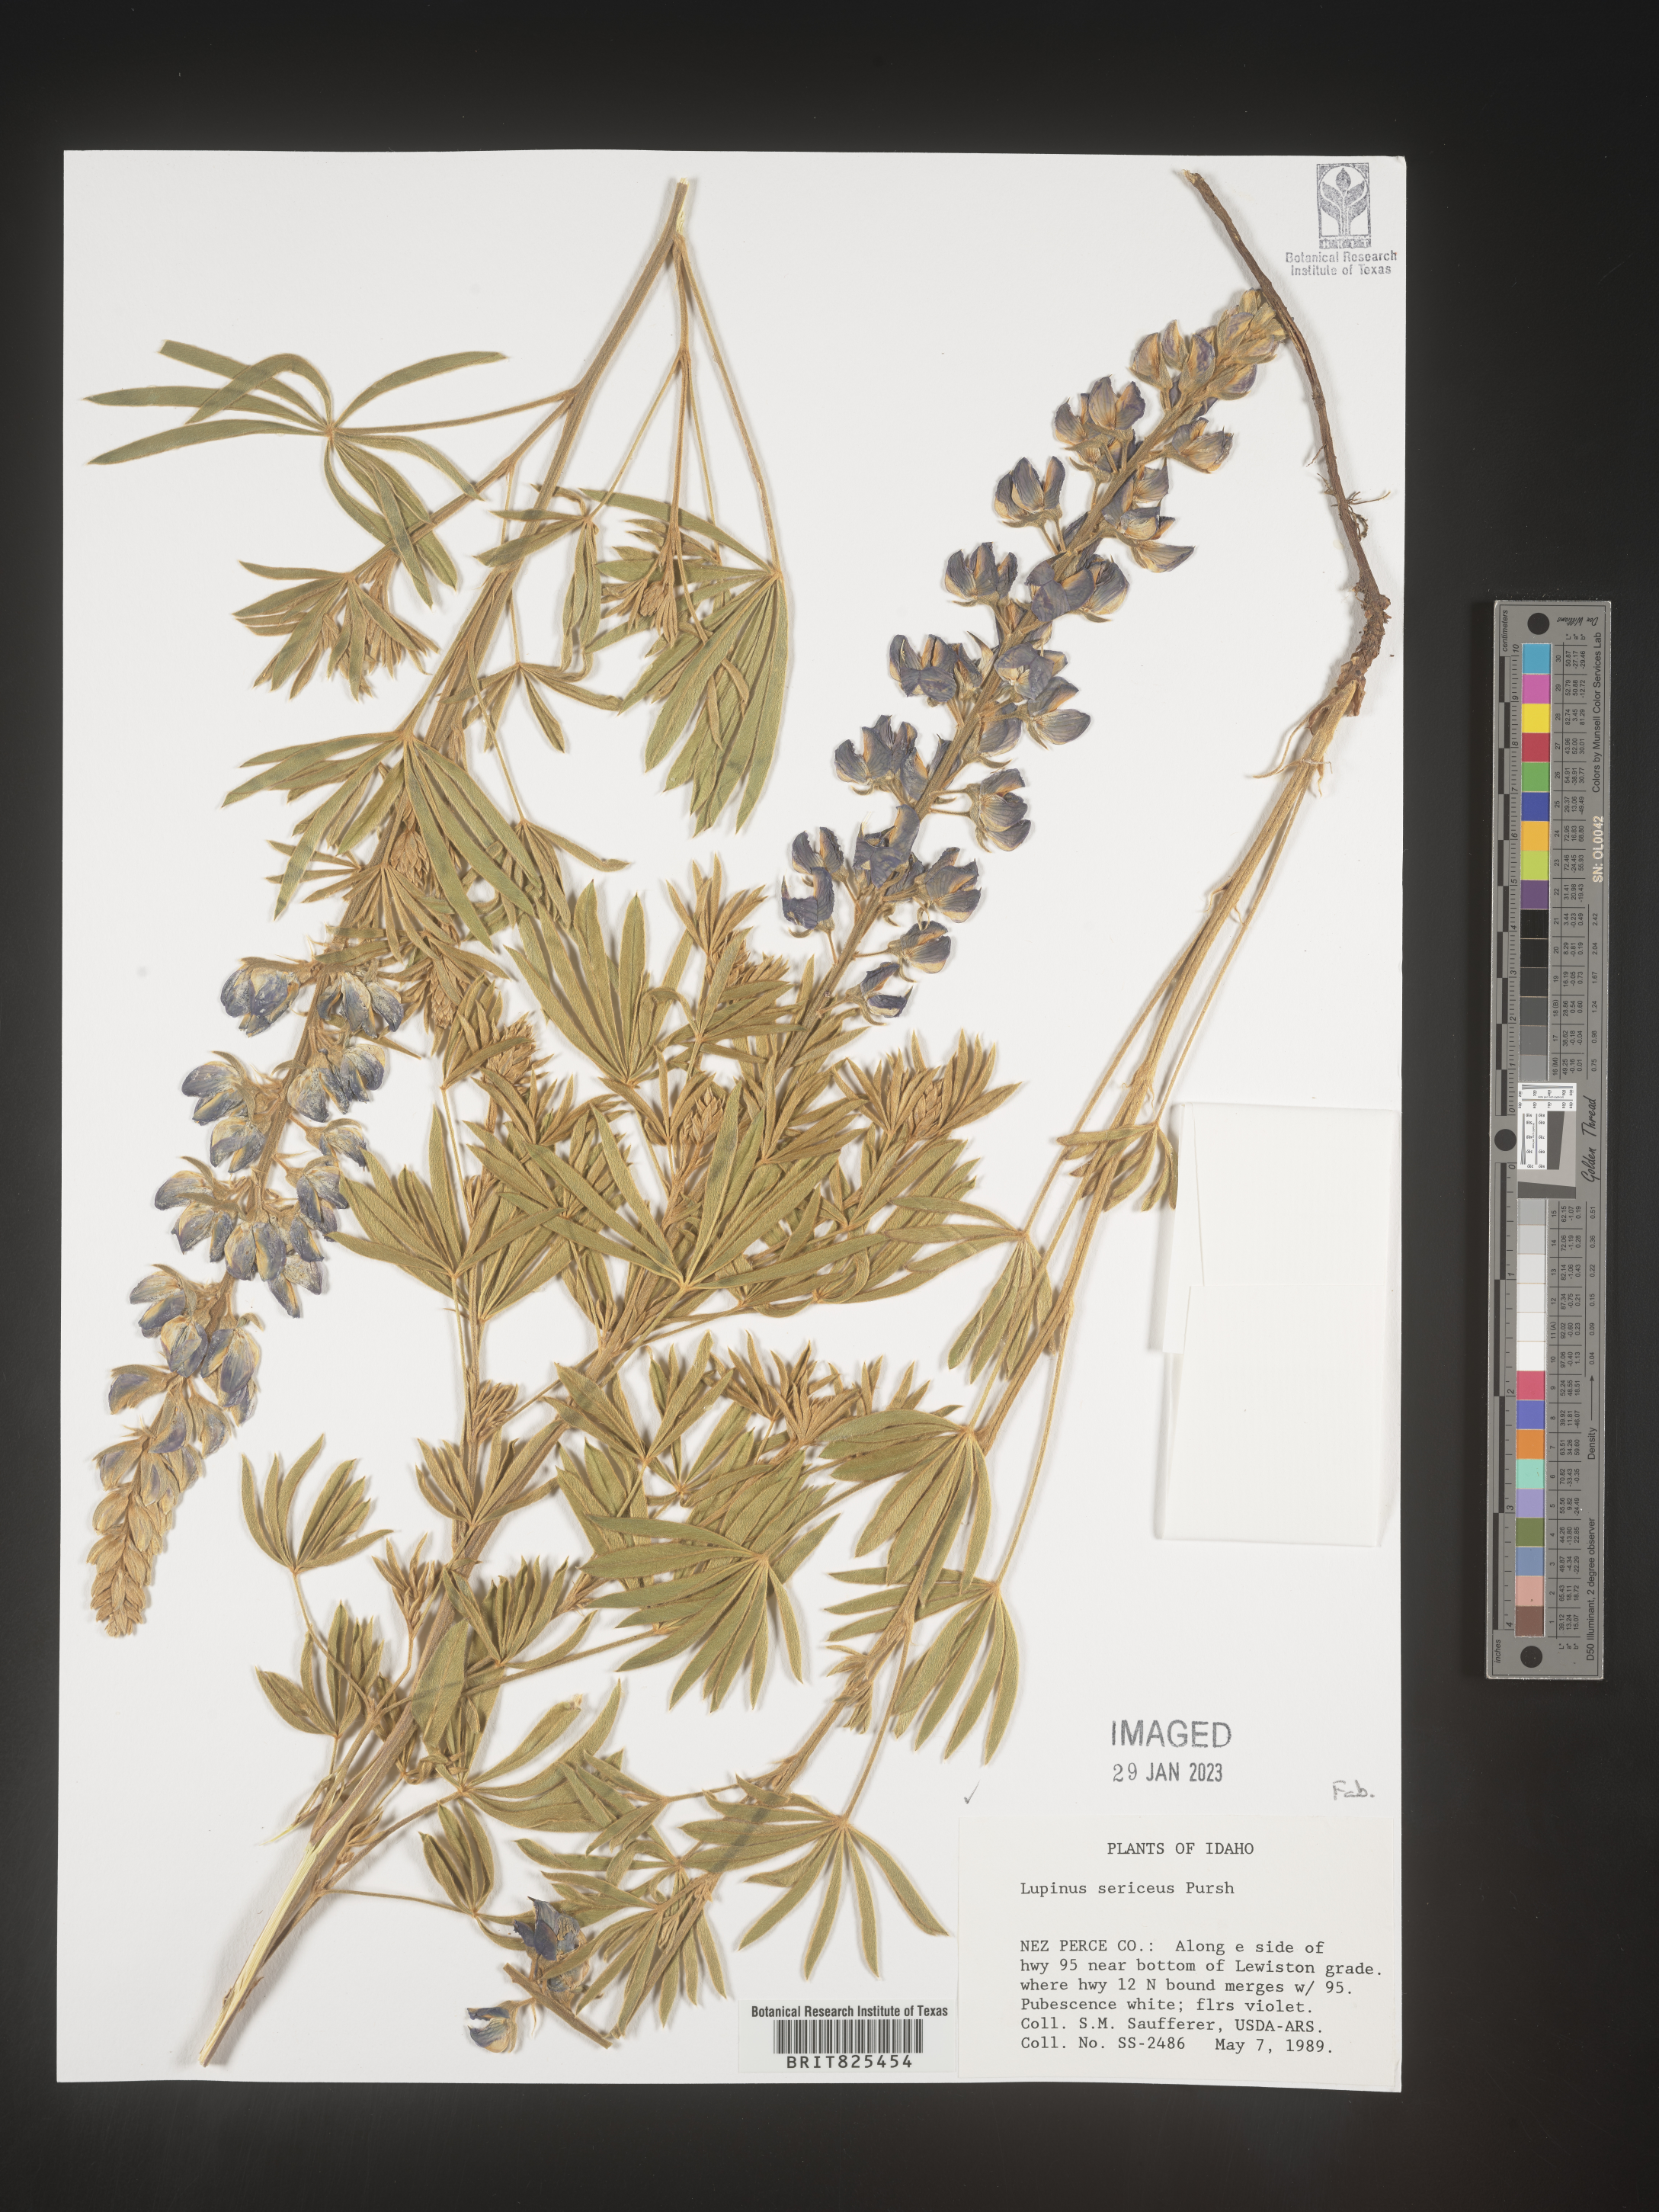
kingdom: Plantae
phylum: Tracheophyta
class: Magnoliopsida
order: Fabales
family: Fabaceae
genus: Lupinus
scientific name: Lupinus sericeus
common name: Silky lupine
